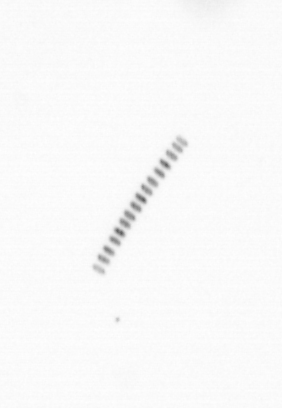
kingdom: Chromista
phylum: Ochrophyta
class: Bacillariophyceae
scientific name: Bacillariophyceae
